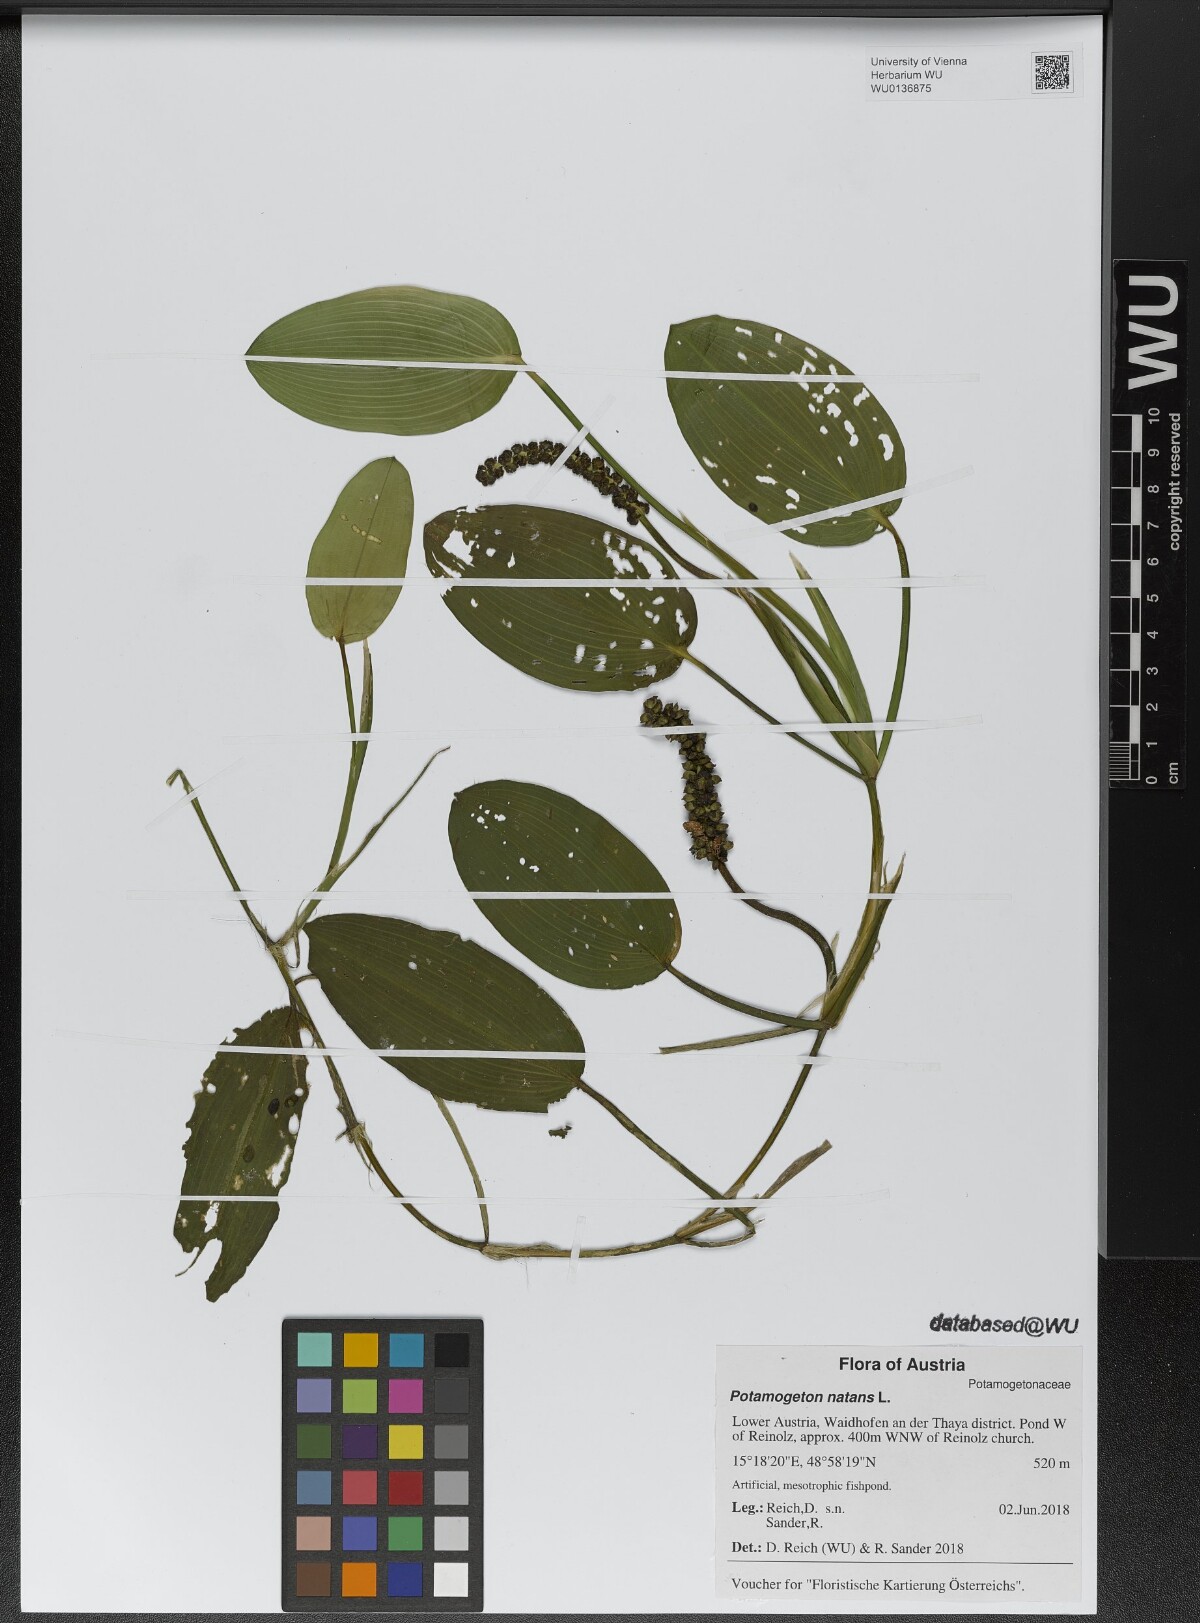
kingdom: Plantae
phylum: Tracheophyta
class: Liliopsida
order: Alismatales
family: Potamogetonaceae
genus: Potamogeton
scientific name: Potamogeton natans
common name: Broad-leaved pondweed
